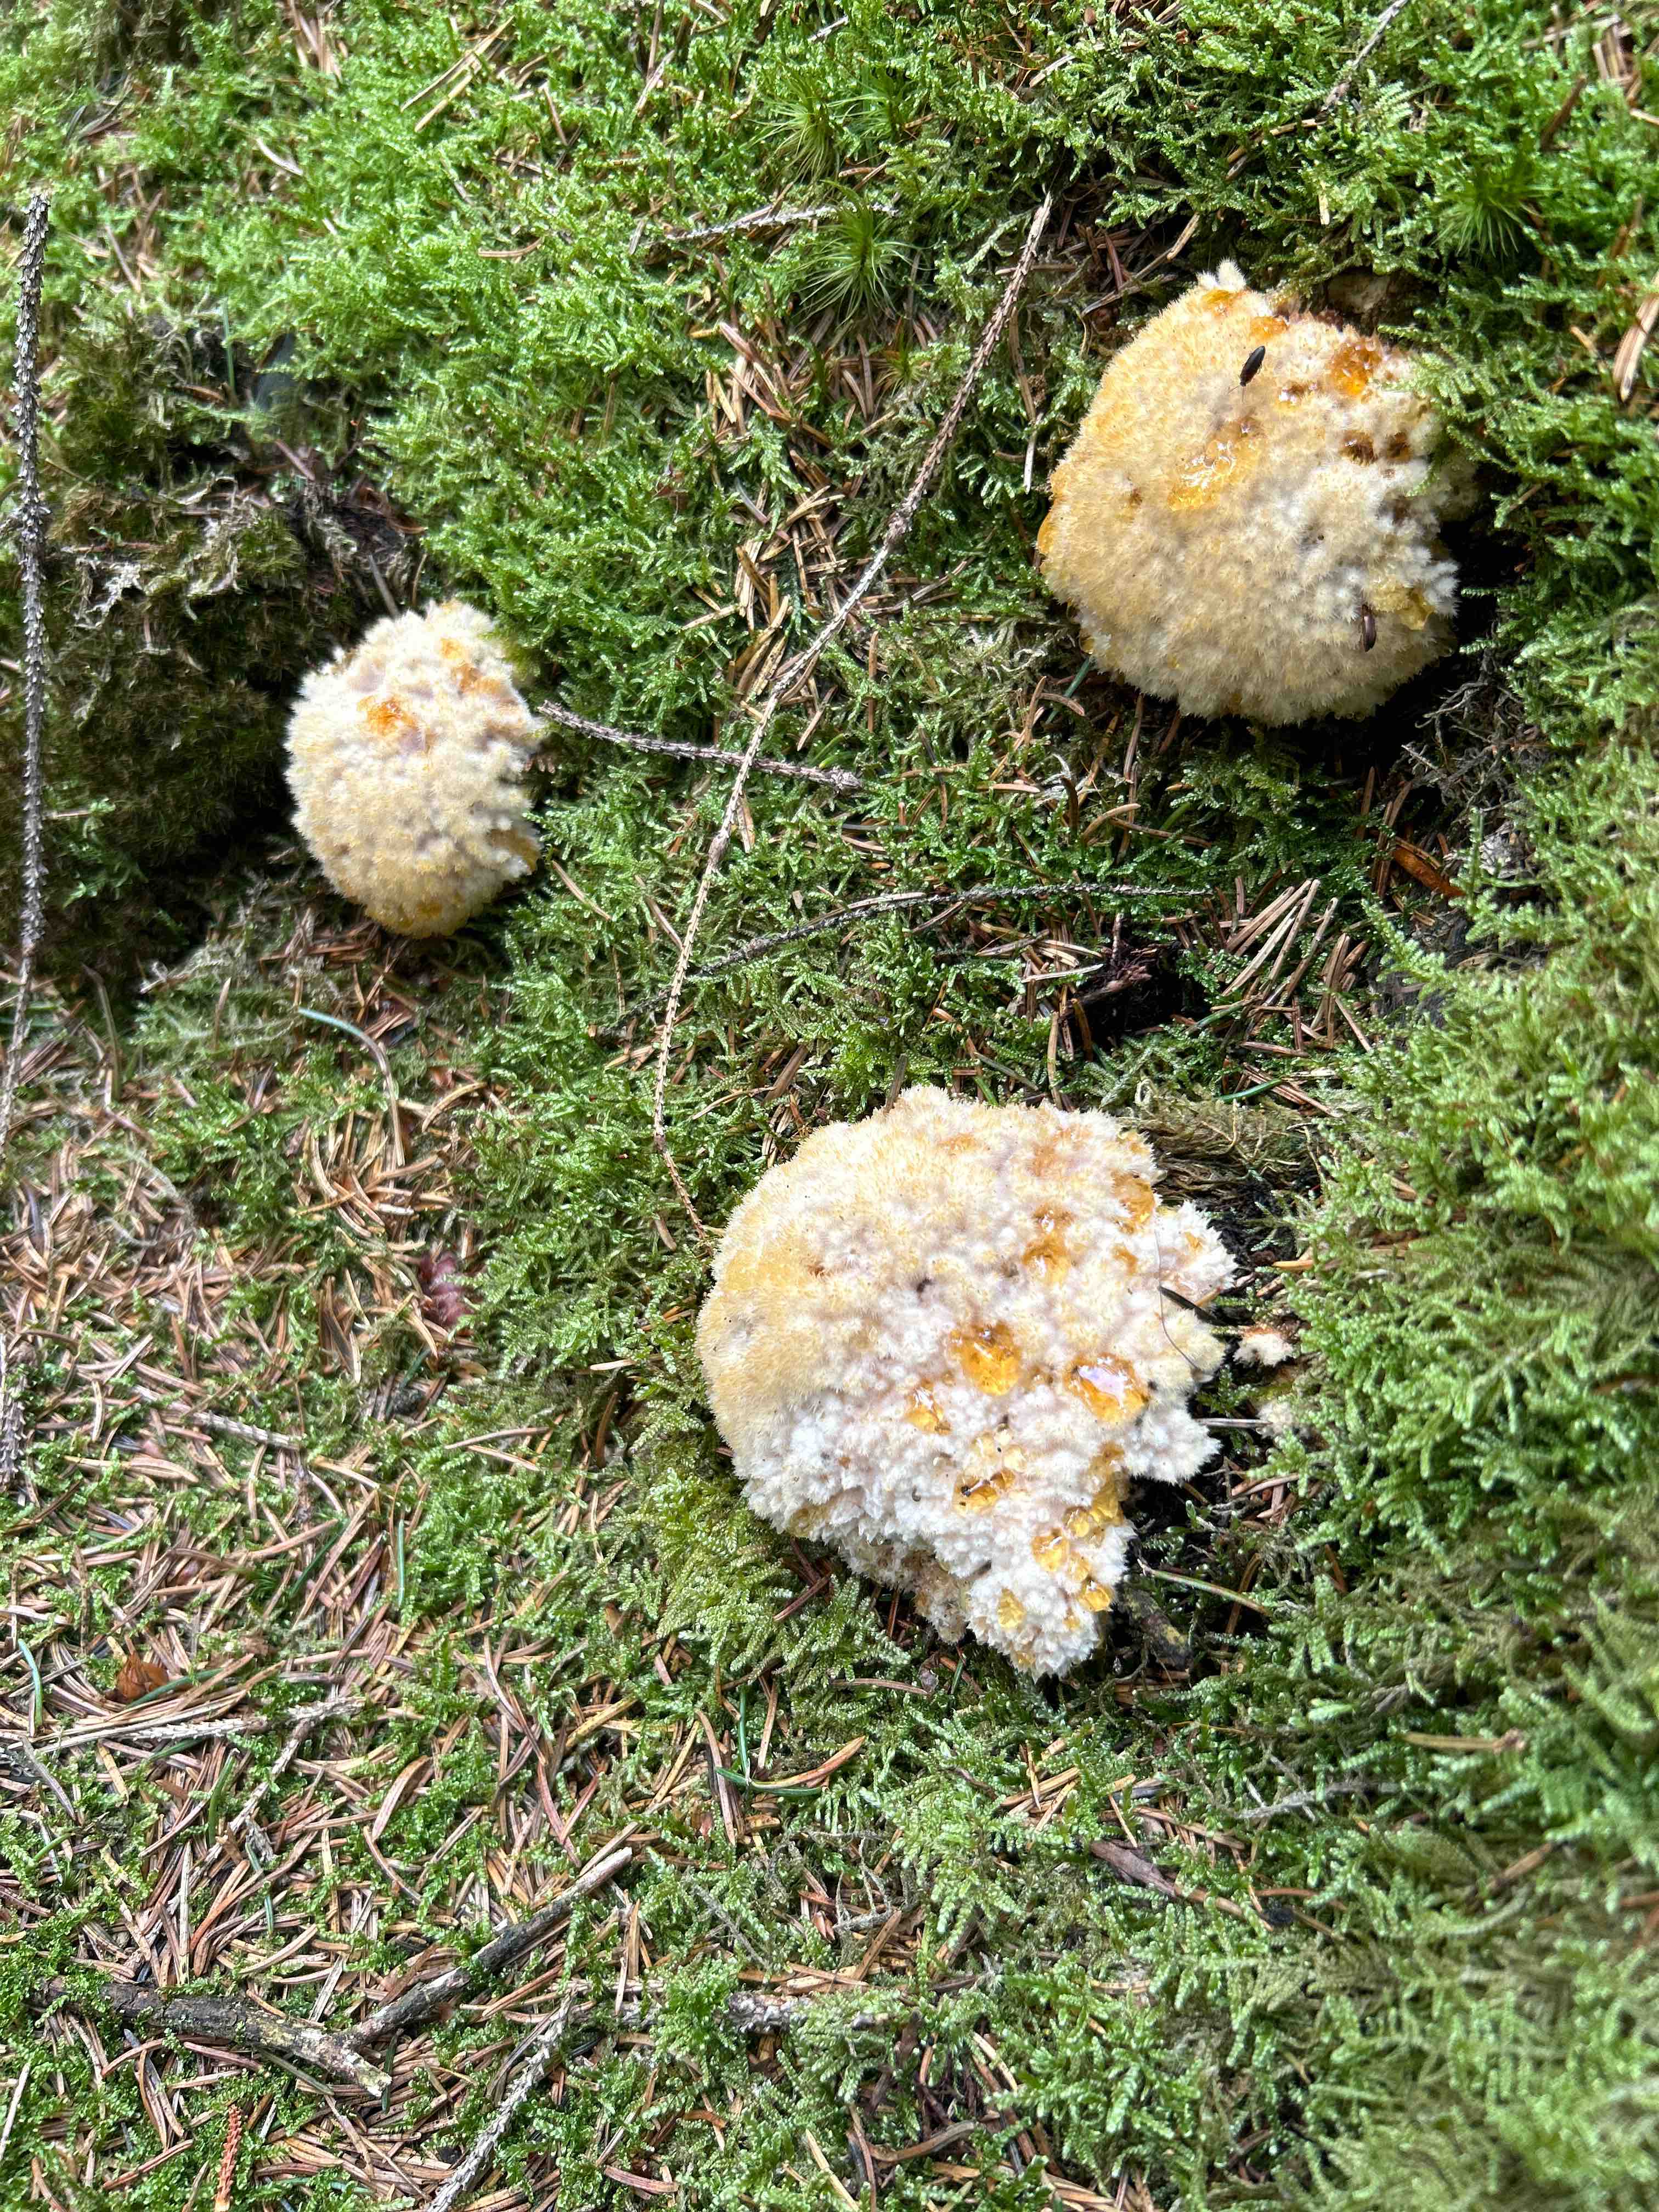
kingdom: Fungi
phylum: Basidiomycota
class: Agaricomycetes
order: Polyporales
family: Dacryobolaceae
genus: Postia
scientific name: Postia ptychogaster
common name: støvende kødporesvamp
